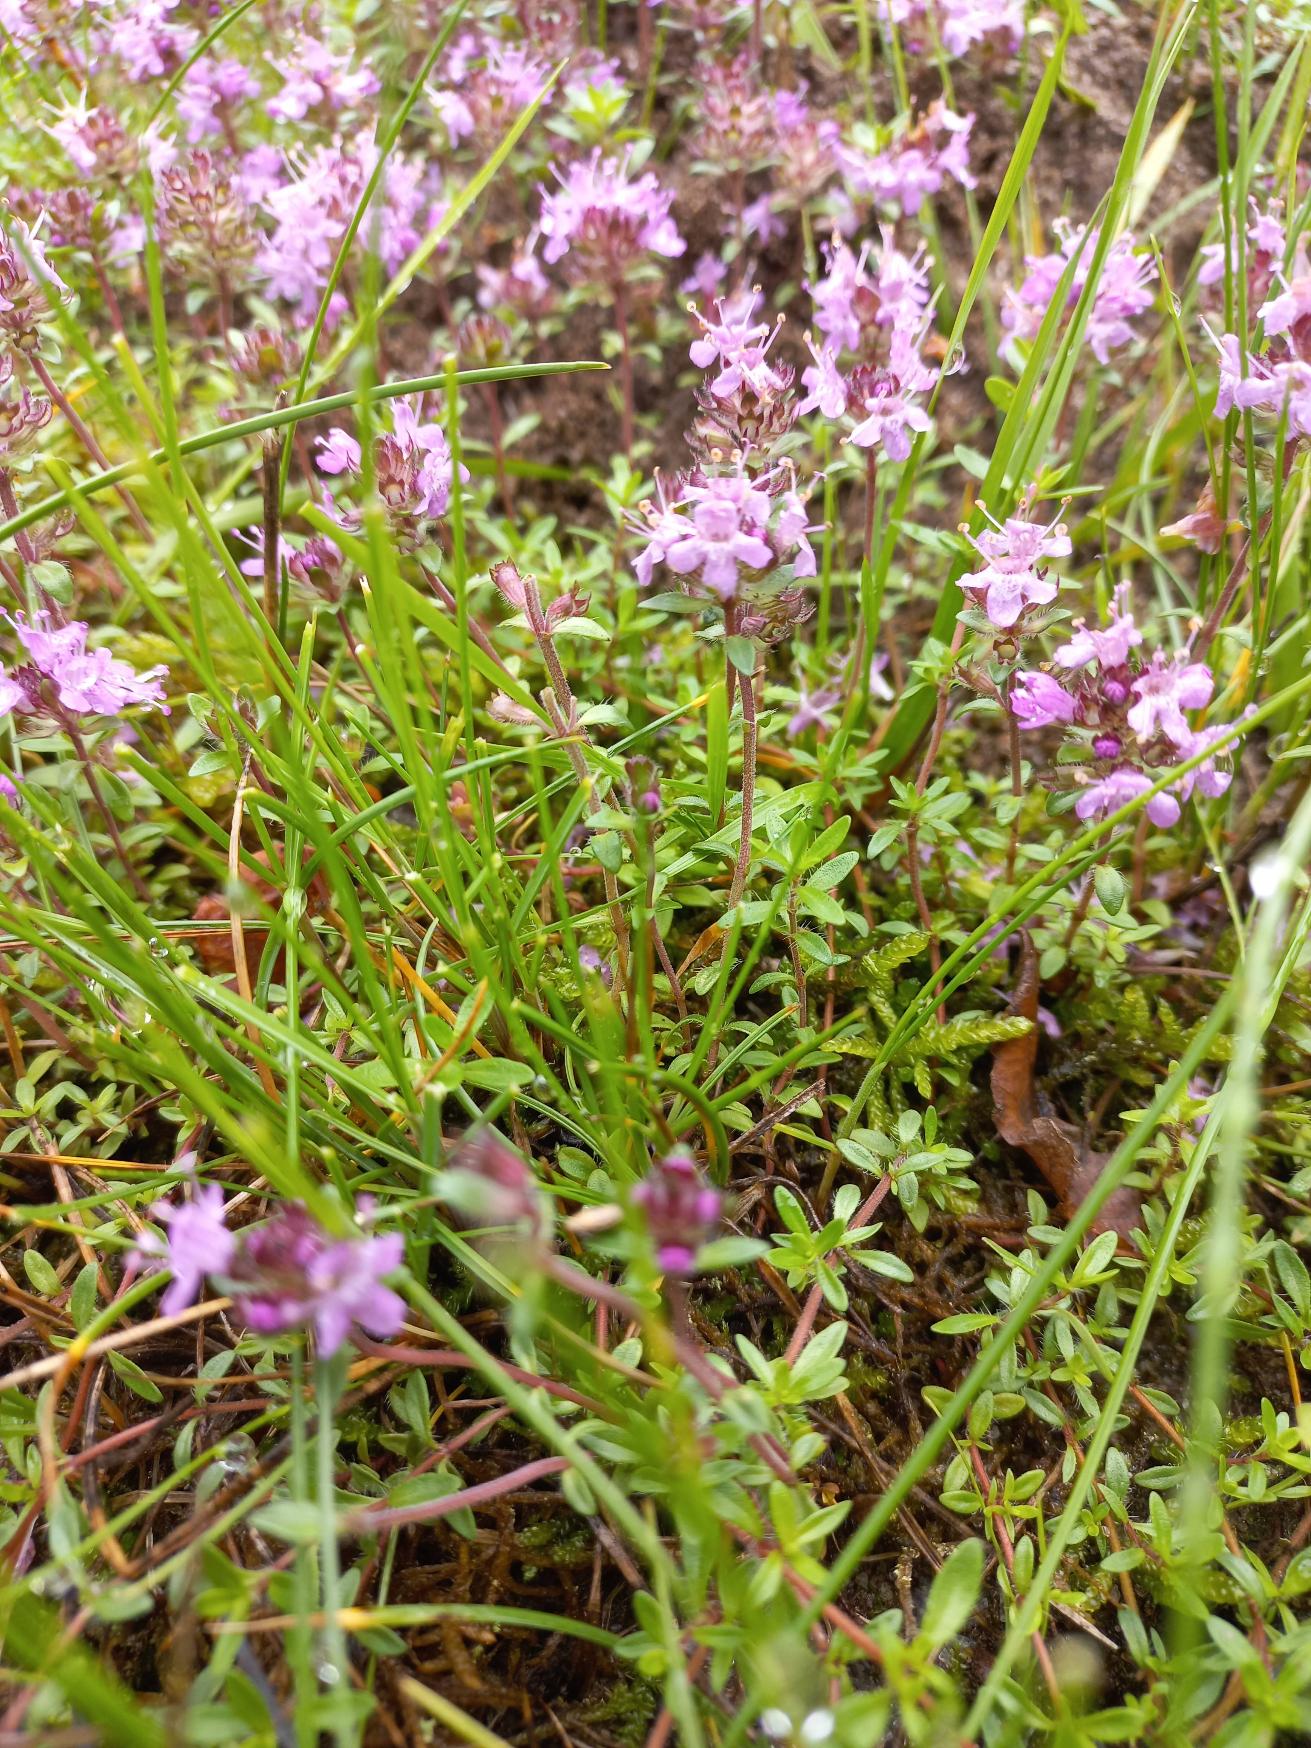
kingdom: Plantae
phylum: Tracheophyta
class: Magnoliopsida
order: Lamiales
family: Lamiaceae
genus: Thymus
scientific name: Thymus serpyllum
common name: Smalbladet timian
